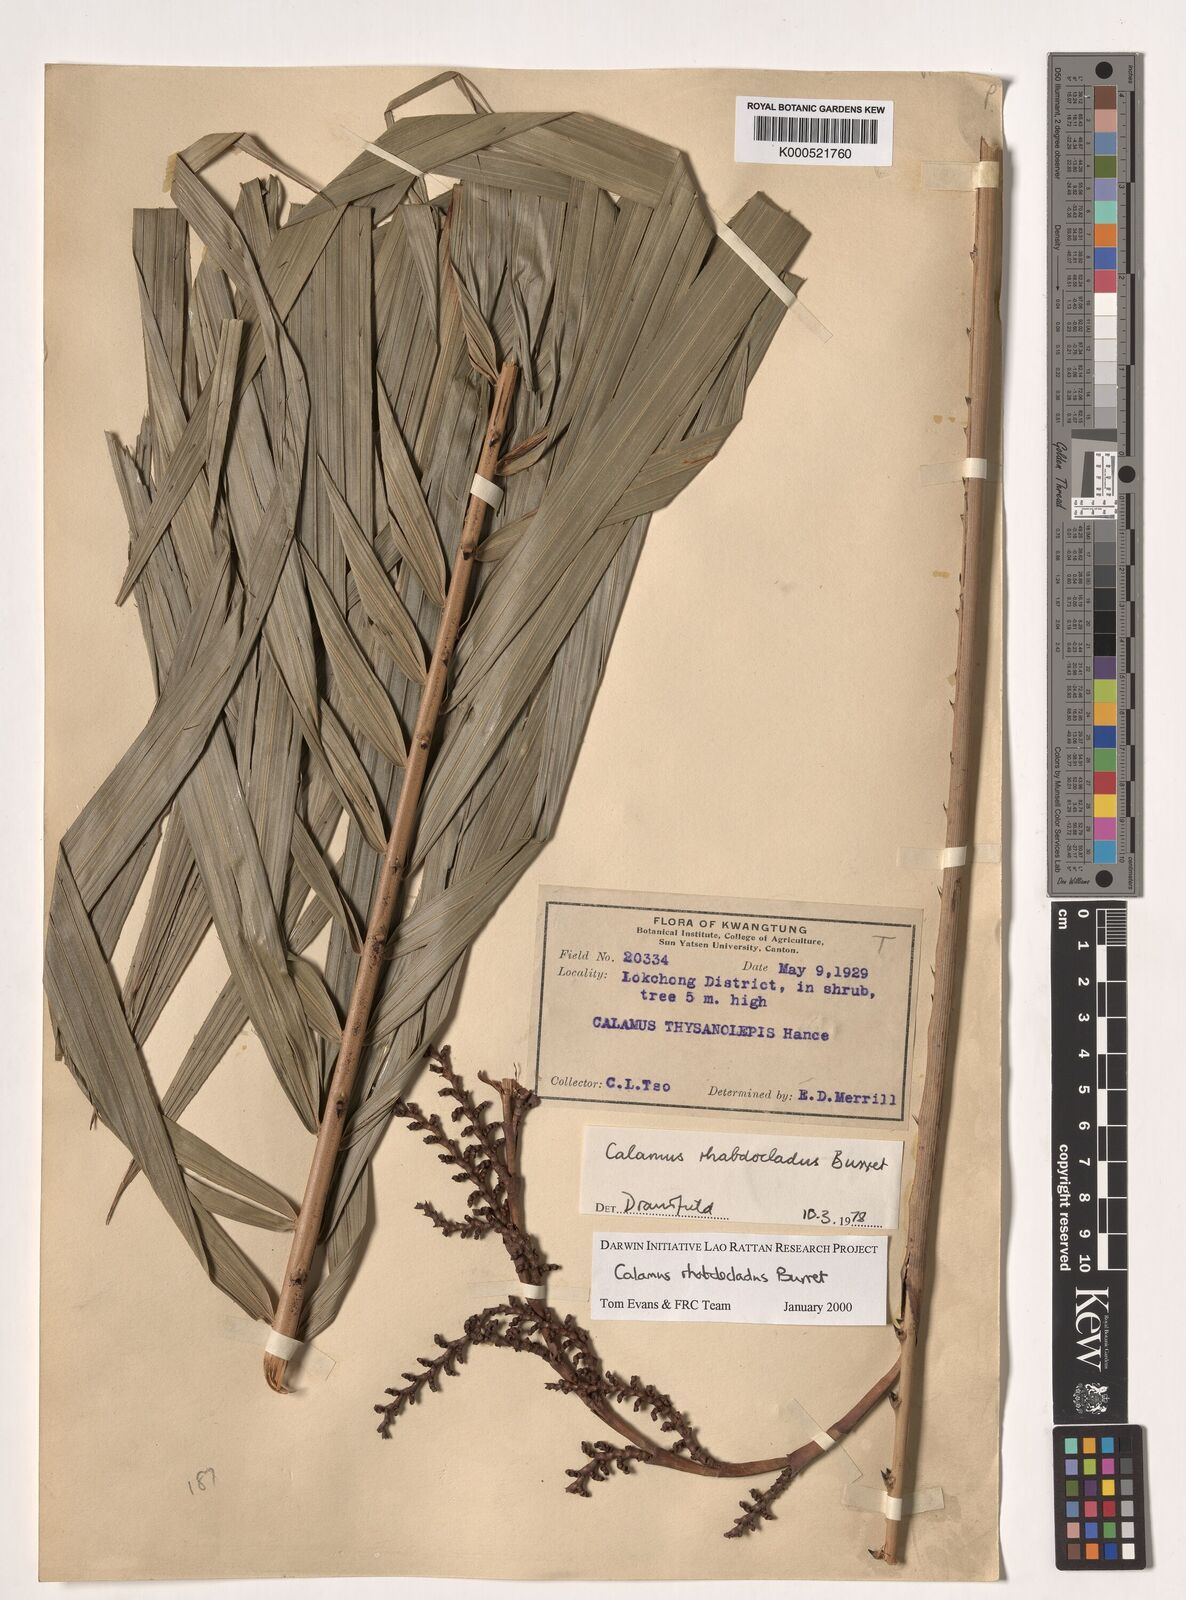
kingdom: Plantae
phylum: Tracheophyta
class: Liliopsida
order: Arecales
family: Arecaceae
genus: Calamus
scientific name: Calamus rhabdocladus
